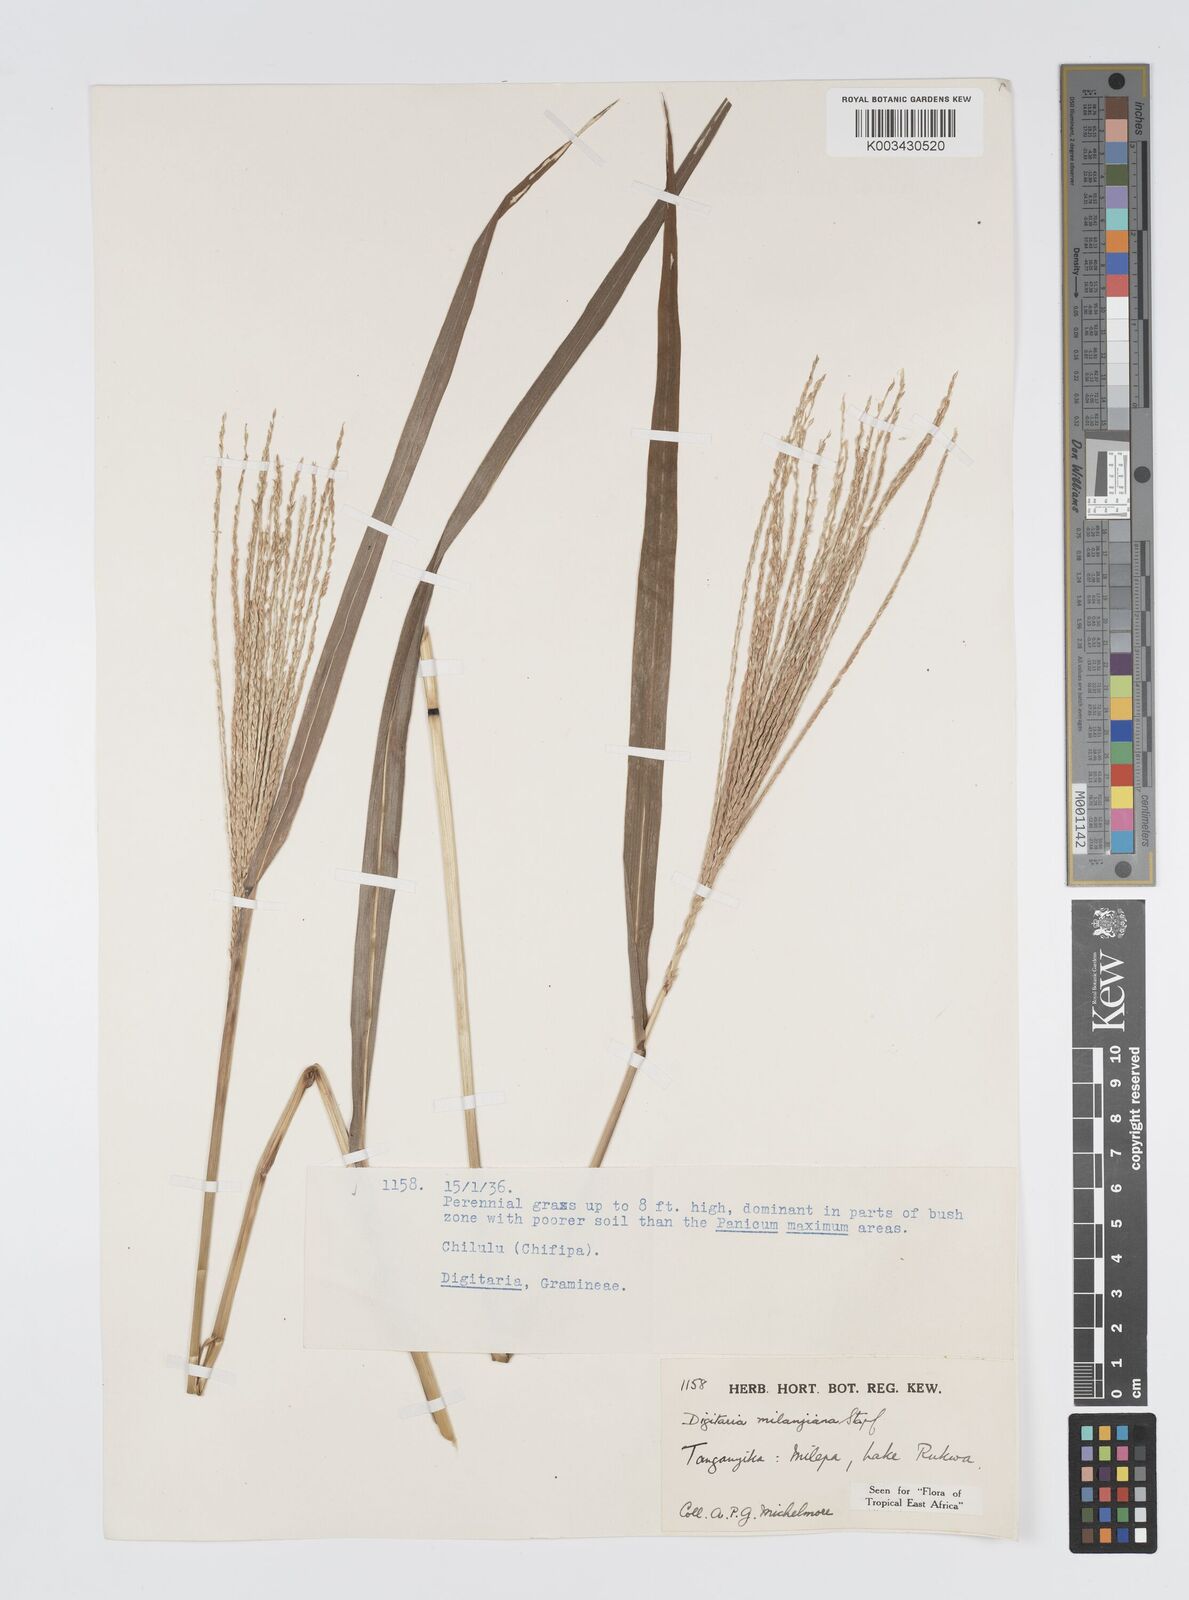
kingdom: Plantae
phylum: Tracheophyta
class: Liliopsida
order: Poales
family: Poaceae
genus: Digitaria
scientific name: Digitaria milanjiana
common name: Madagascar crabgrass
